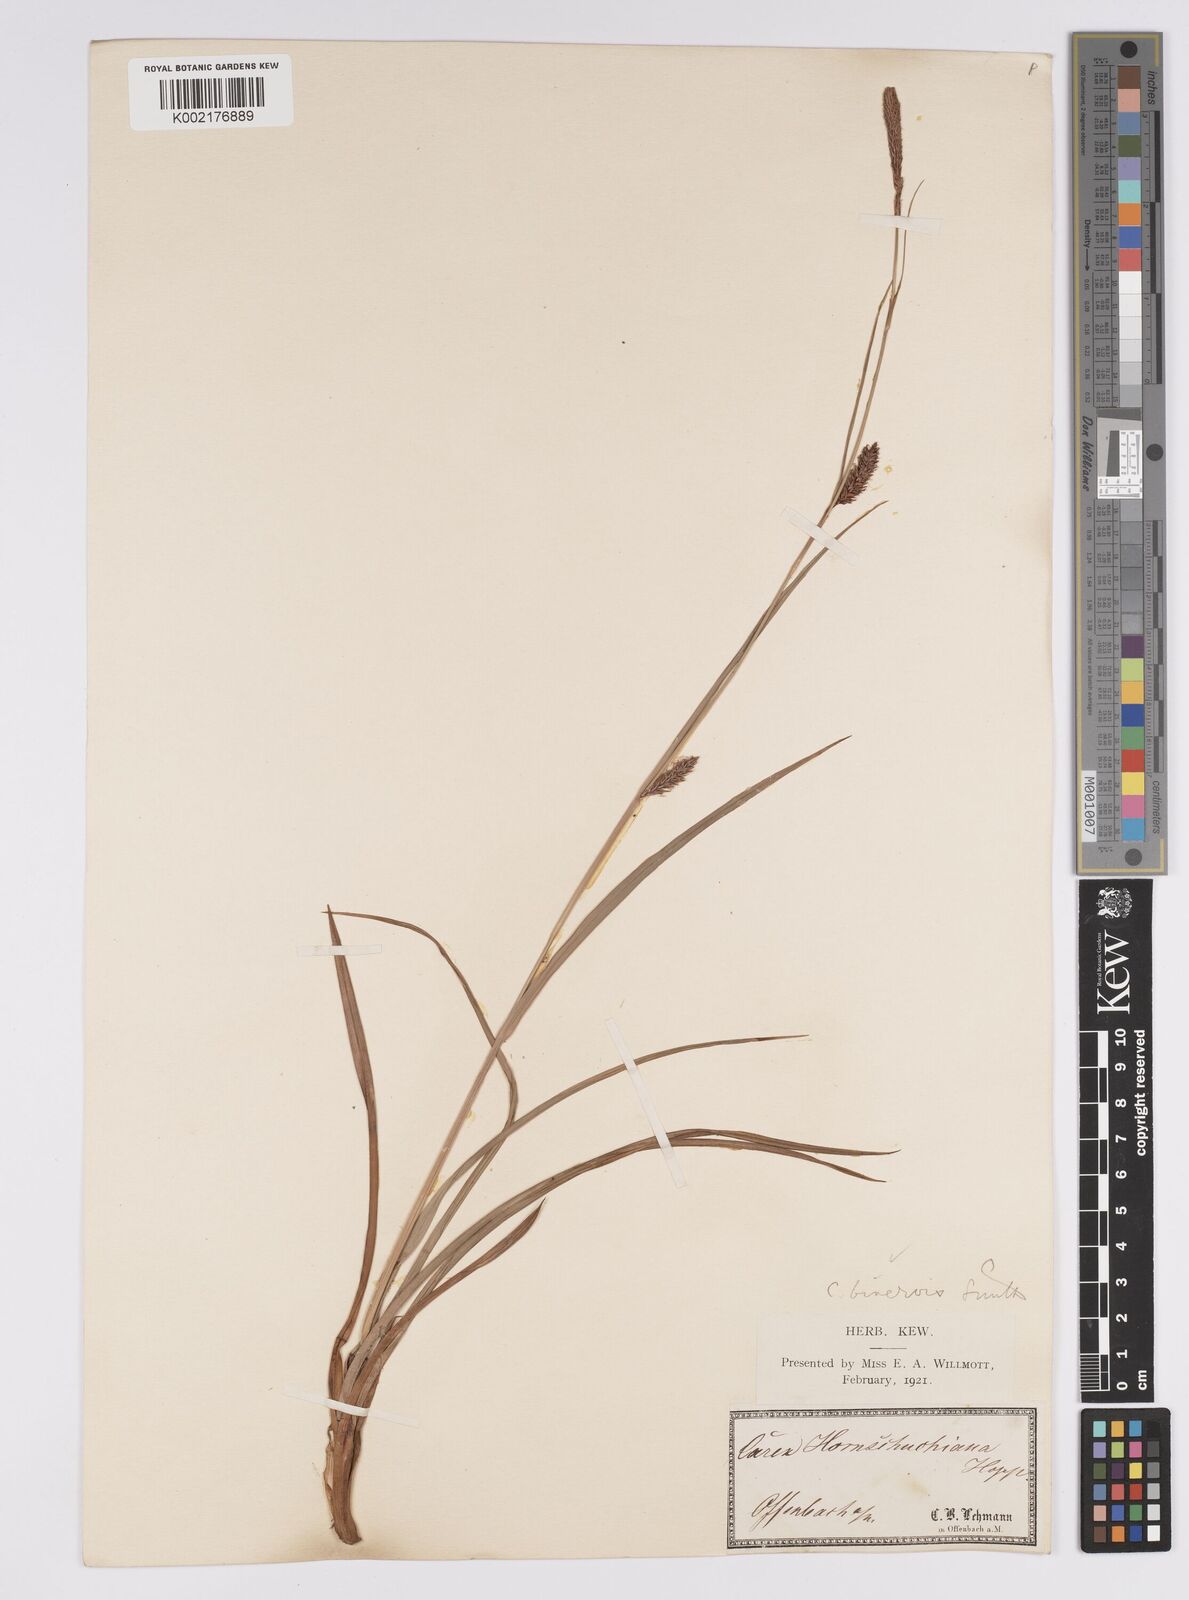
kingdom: Plantae
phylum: Tracheophyta
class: Liliopsida
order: Poales
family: Cyperaceae
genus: Carex
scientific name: Carex binervis
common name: Green-ribbed sedge
